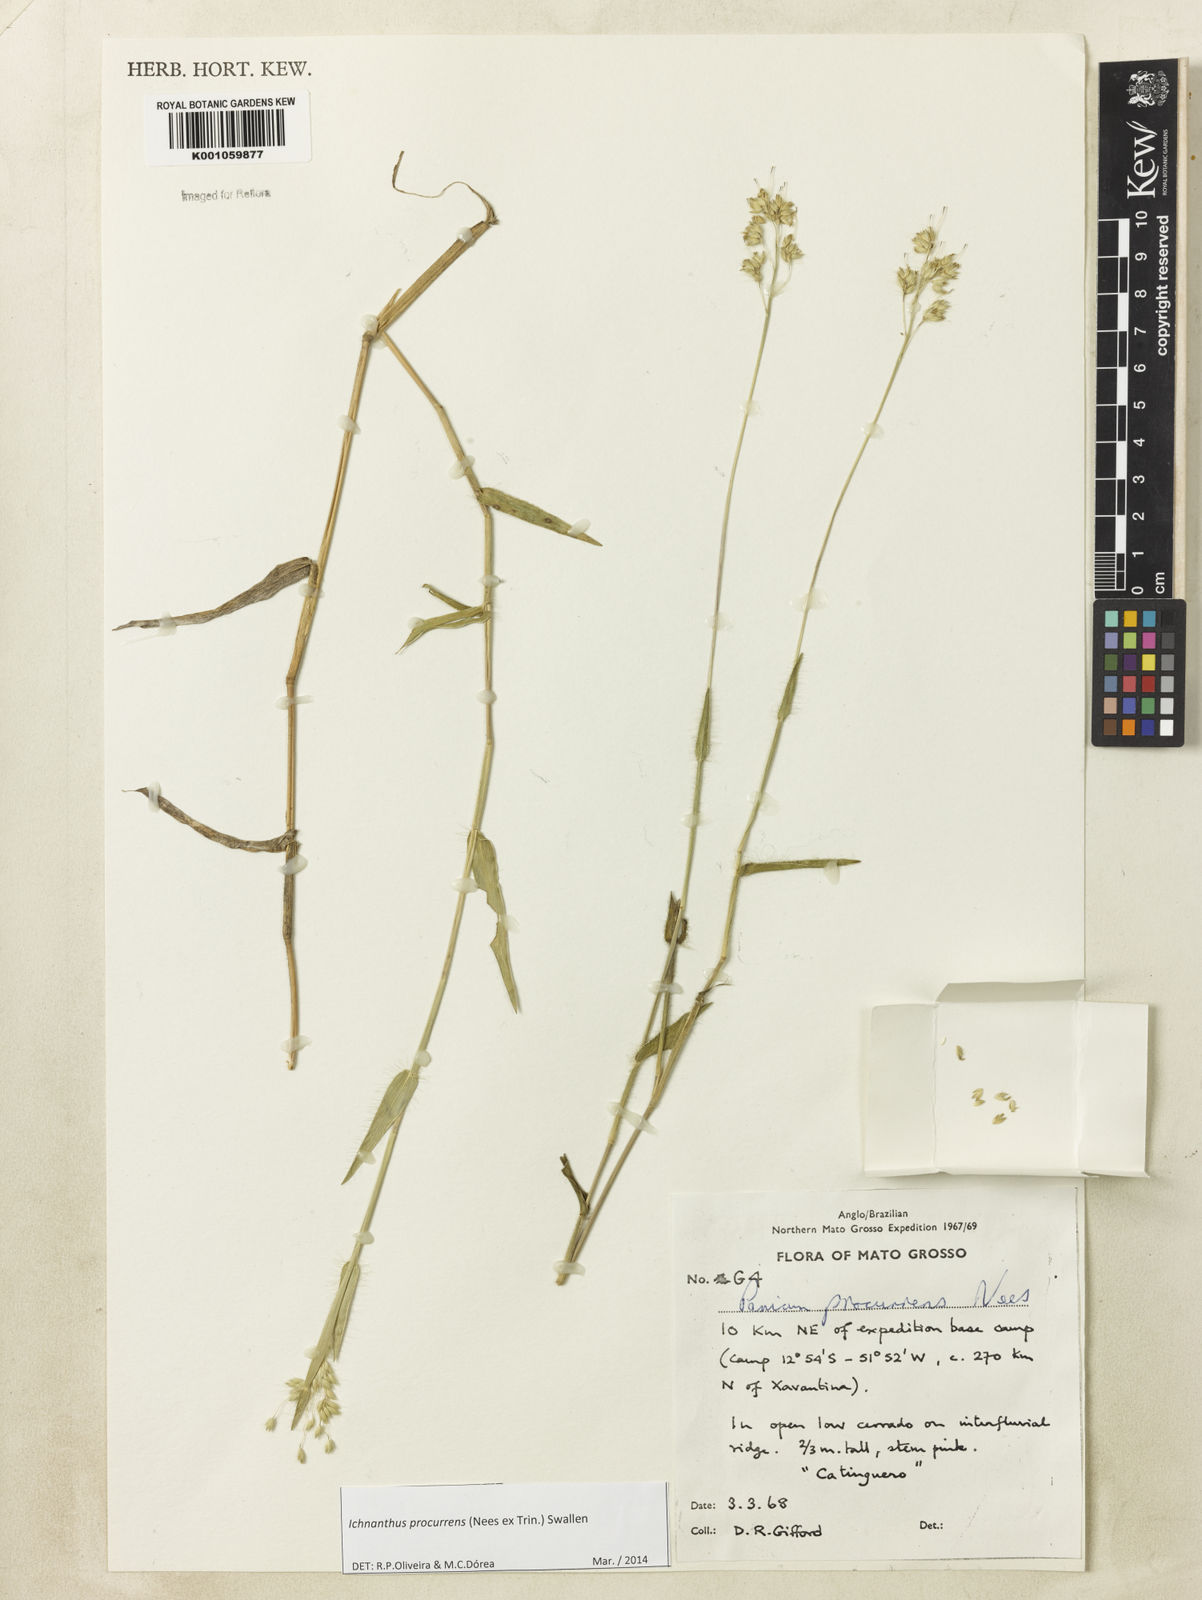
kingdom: Plantae
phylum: Tracheophyta
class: Liliopsida
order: Poales
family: Poaceae
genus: Oedochloa
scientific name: Oedochloa procurrens
